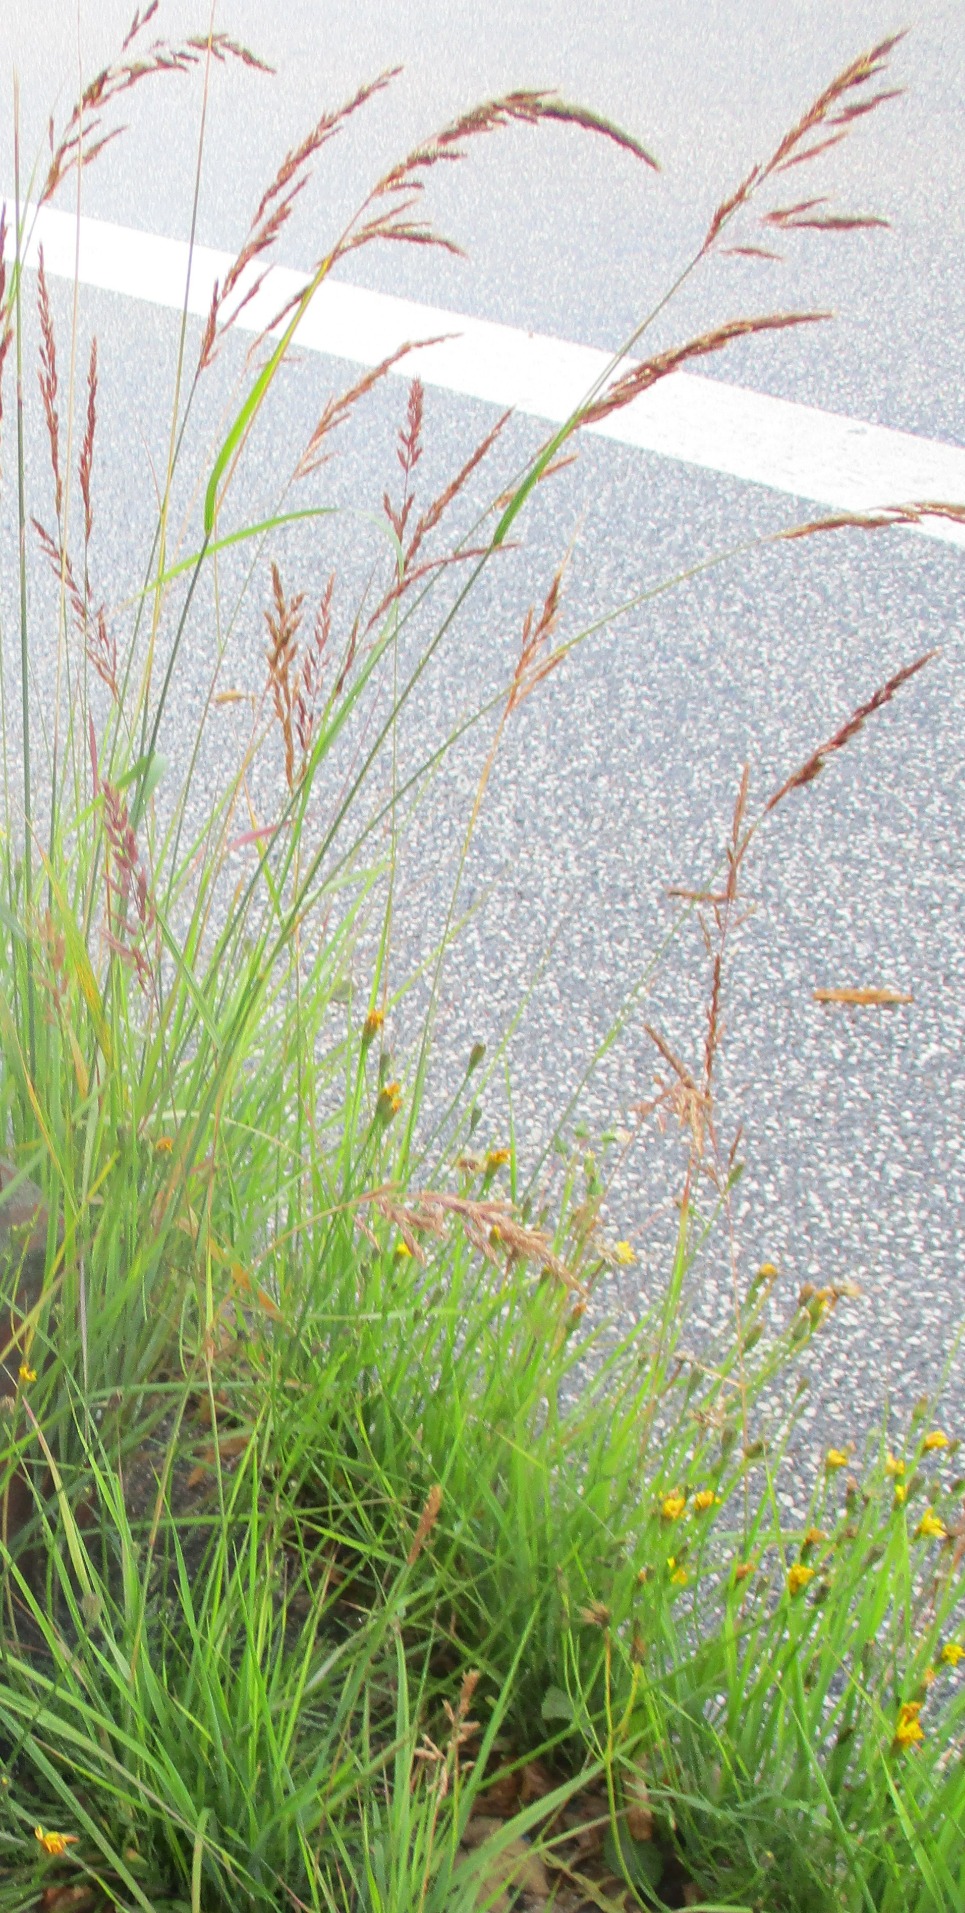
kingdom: Plantae
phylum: Tracheophyta
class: Liliopsida
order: Poales
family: Poaceae
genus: Calamagrostis
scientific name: Calamagrostis epigejos
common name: Bjerg-rørhvene
